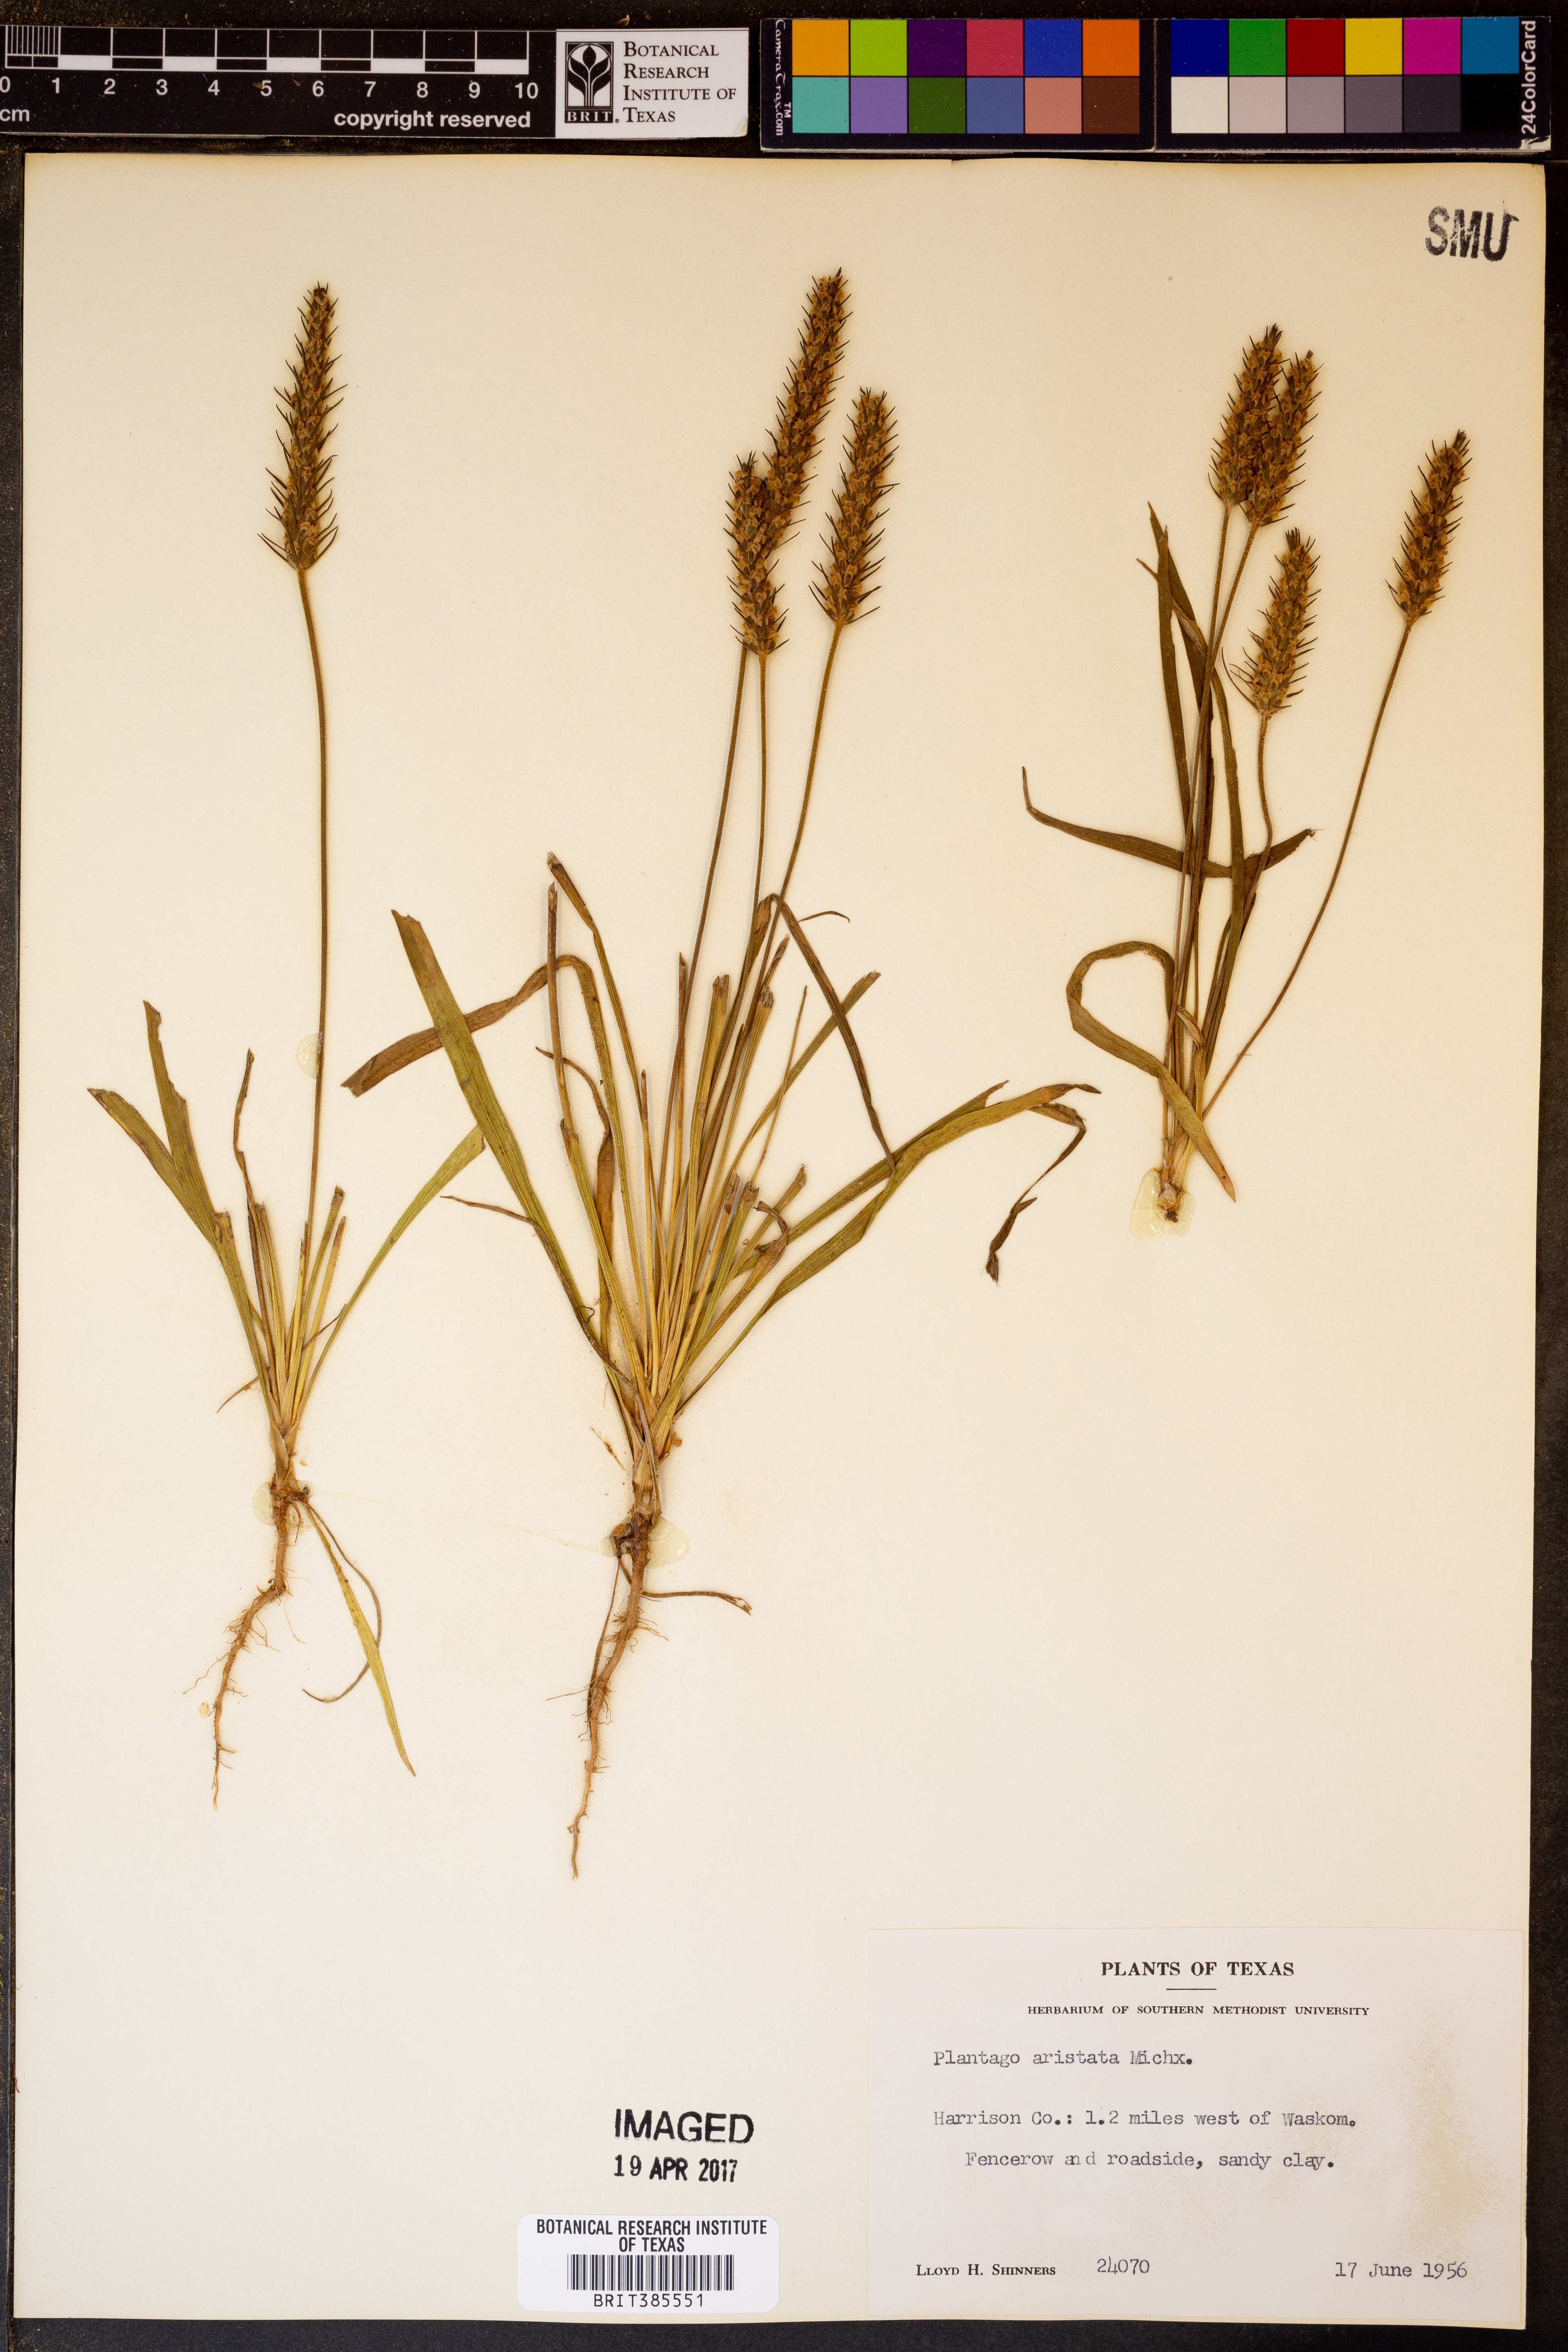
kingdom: Plantae
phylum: Tracheophyta
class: Magnoliopsida
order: Lamiales
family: Plantaginaceae
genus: Plantago
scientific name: Plantago aristata
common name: Bracted plantain
